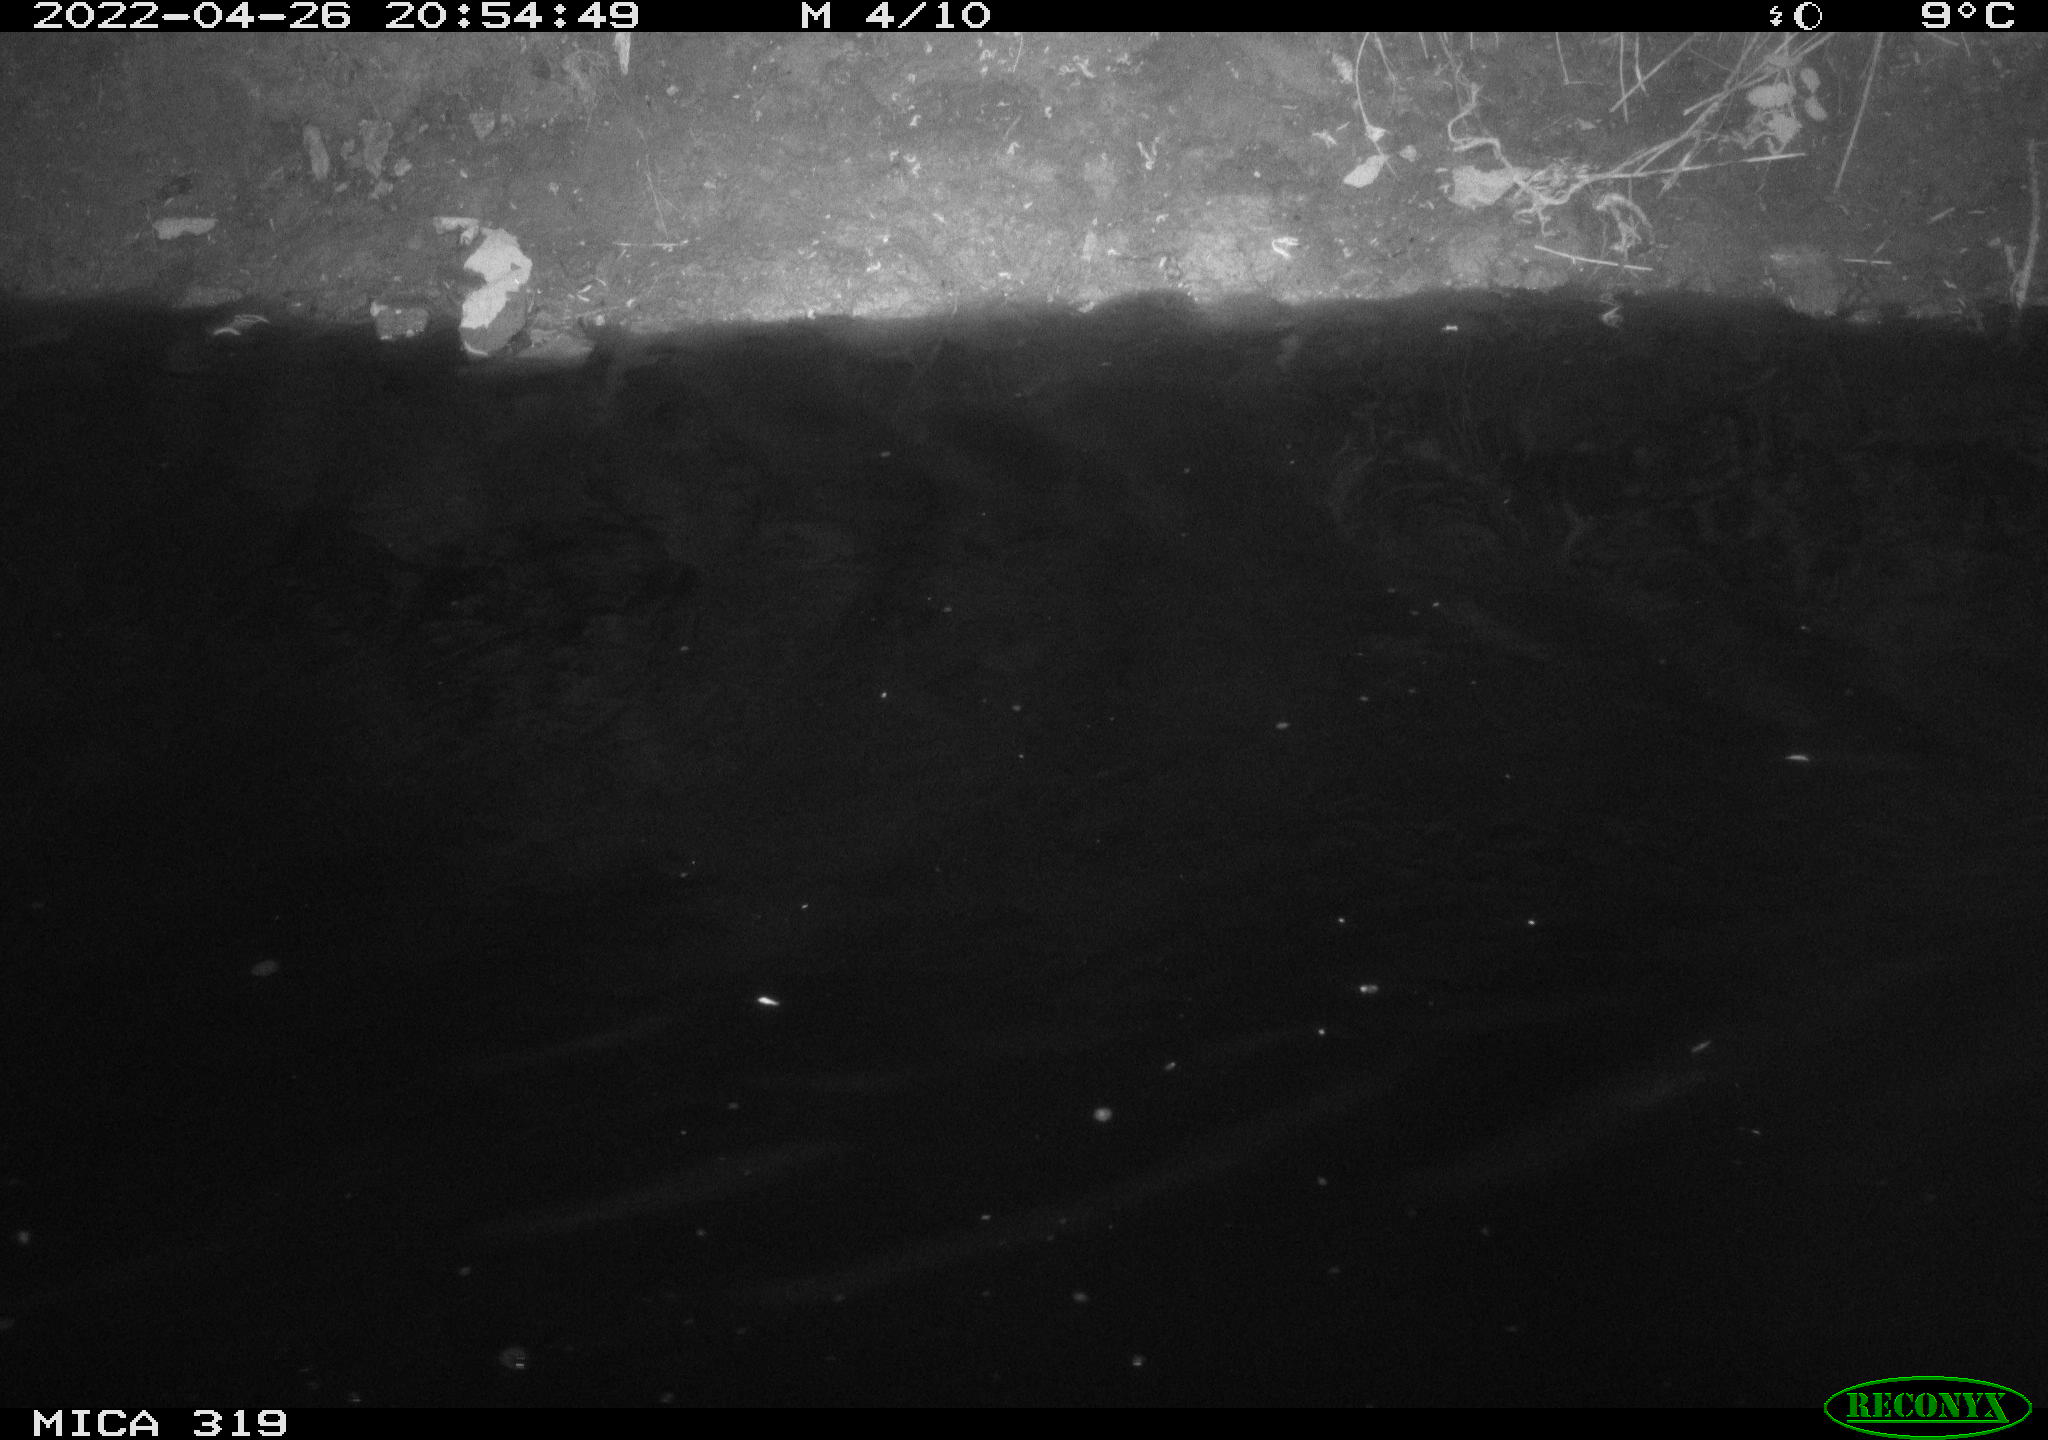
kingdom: Animalia
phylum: Chordata
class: Aves
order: Anseriformes
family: Anatidae
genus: Anas
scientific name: Anas platyrhynchos
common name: Mallard
